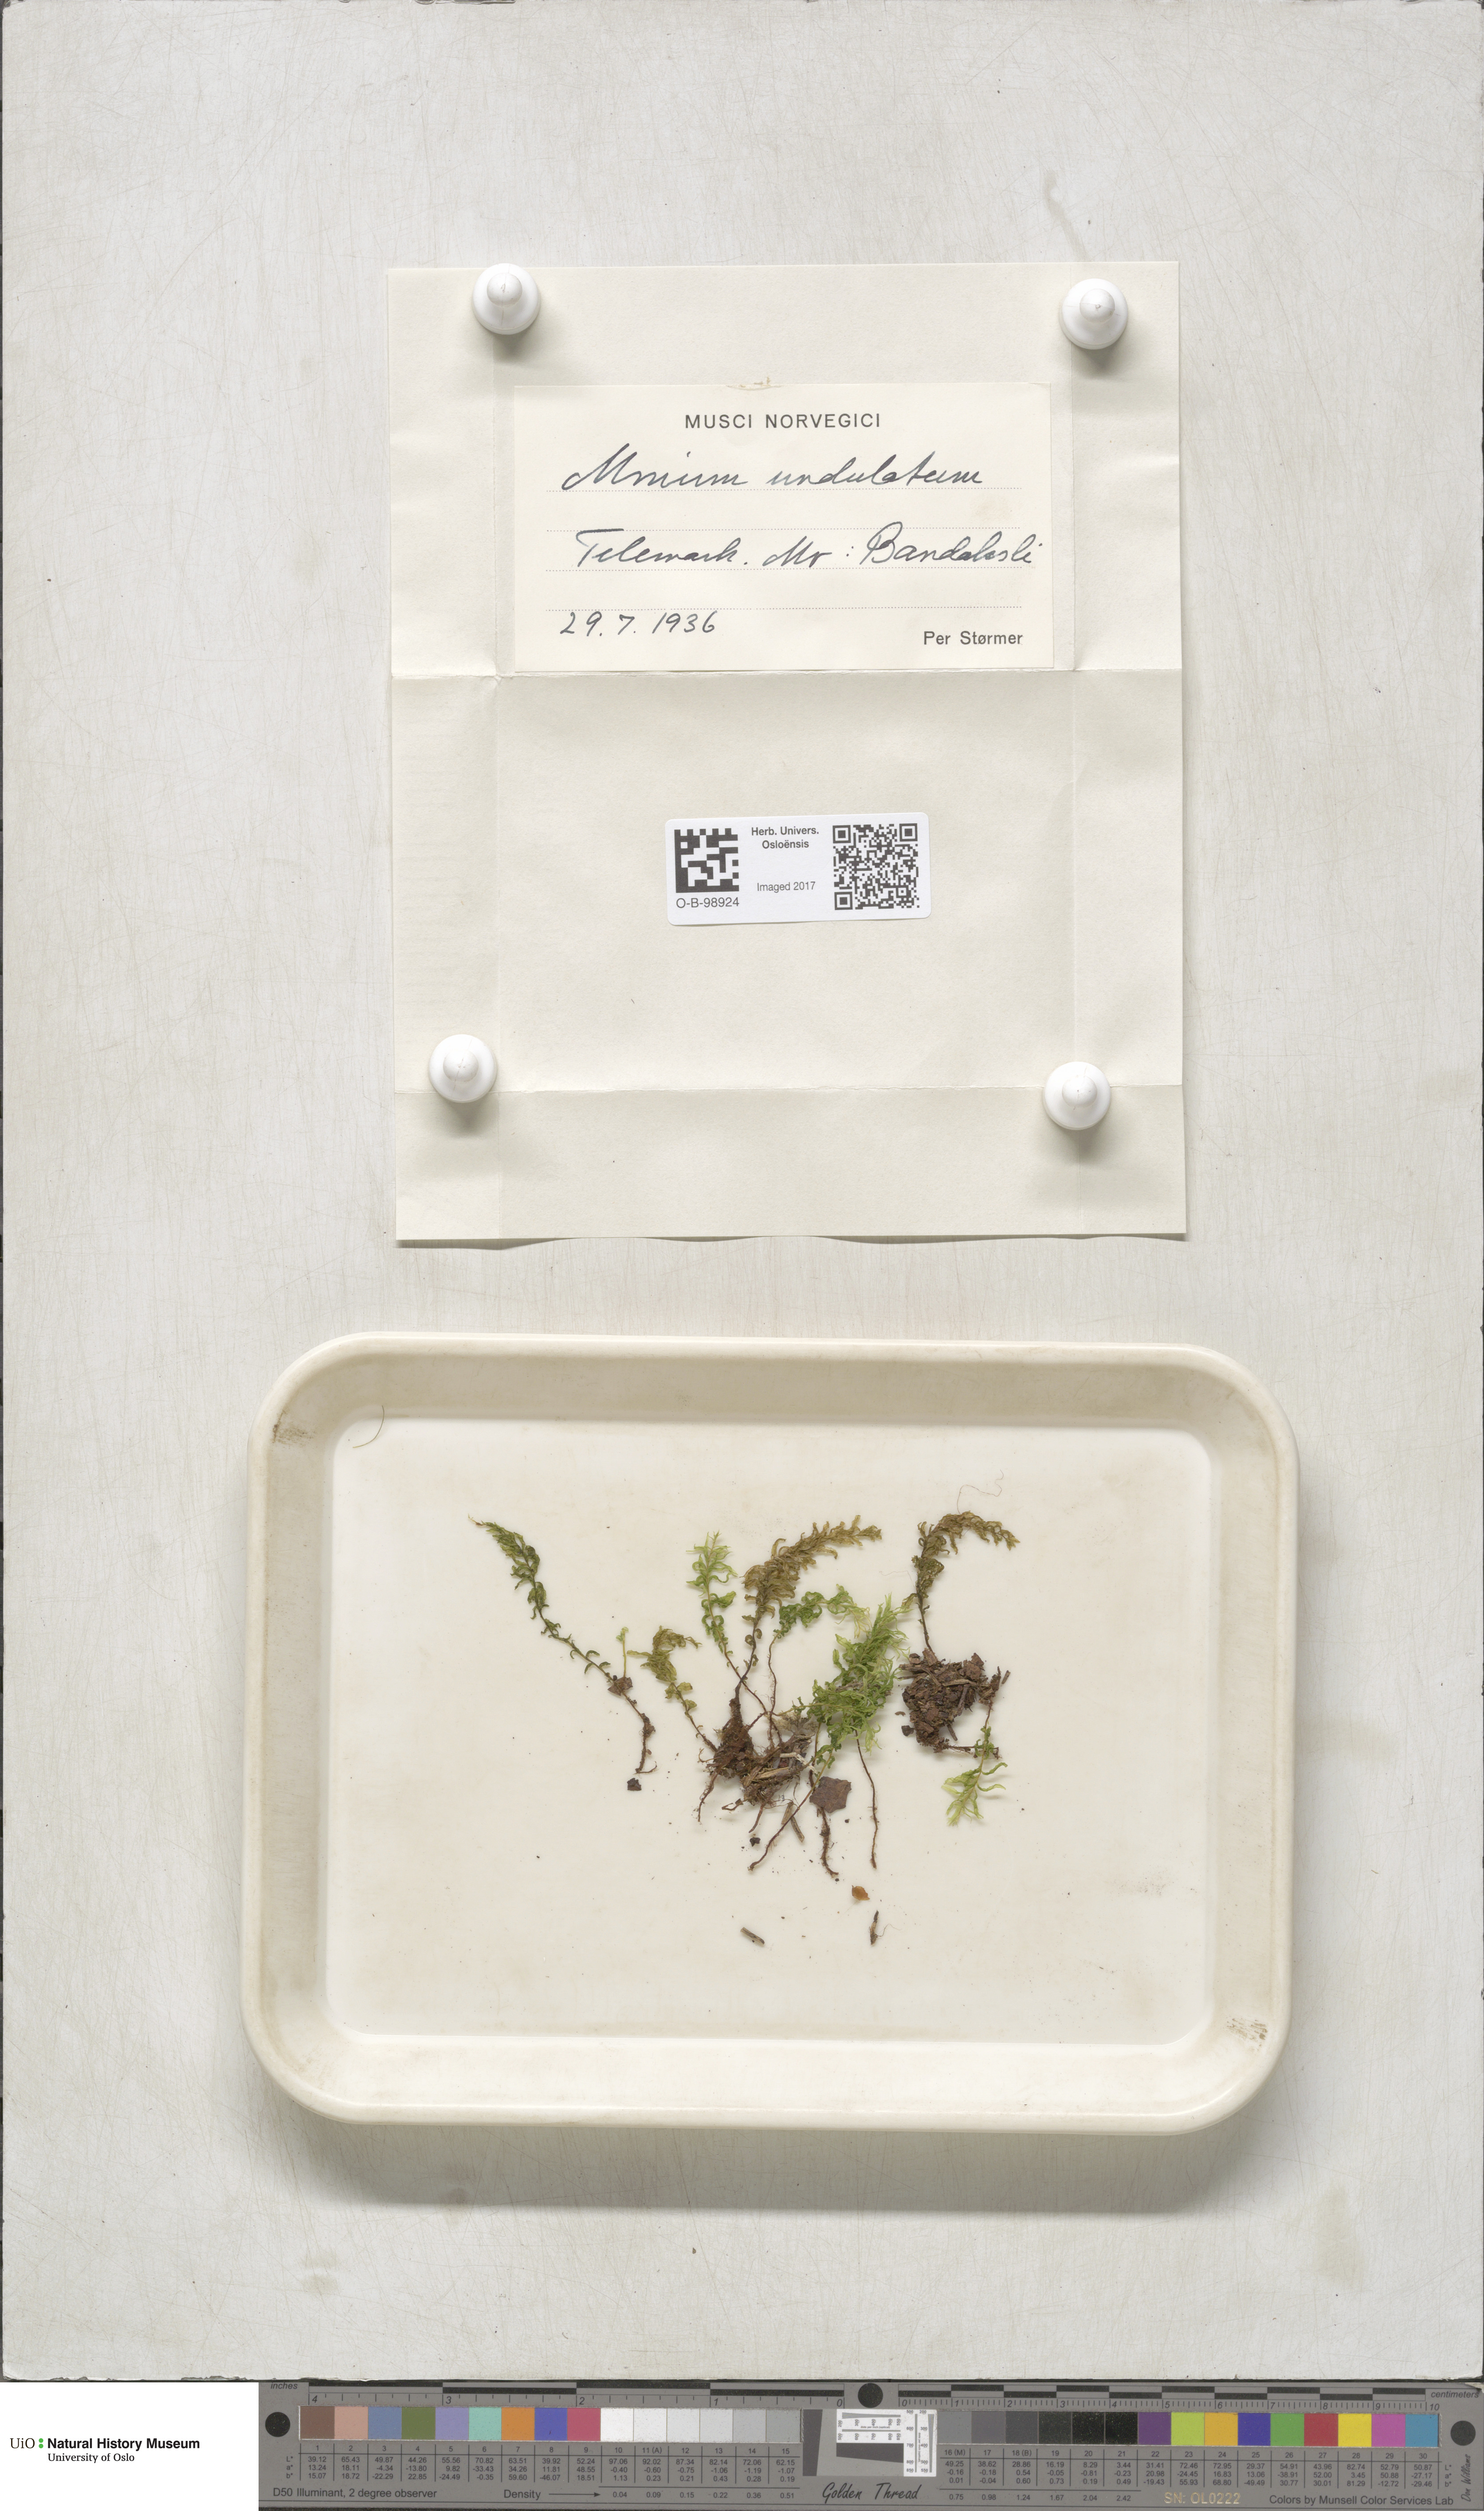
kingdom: Plantae
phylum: Bryophyta
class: Bryopsida
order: Bryales
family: Mniaceae
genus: Plagiomnium
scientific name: Plagiomnium undulatum
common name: Hart's-tongue thyme-moss
